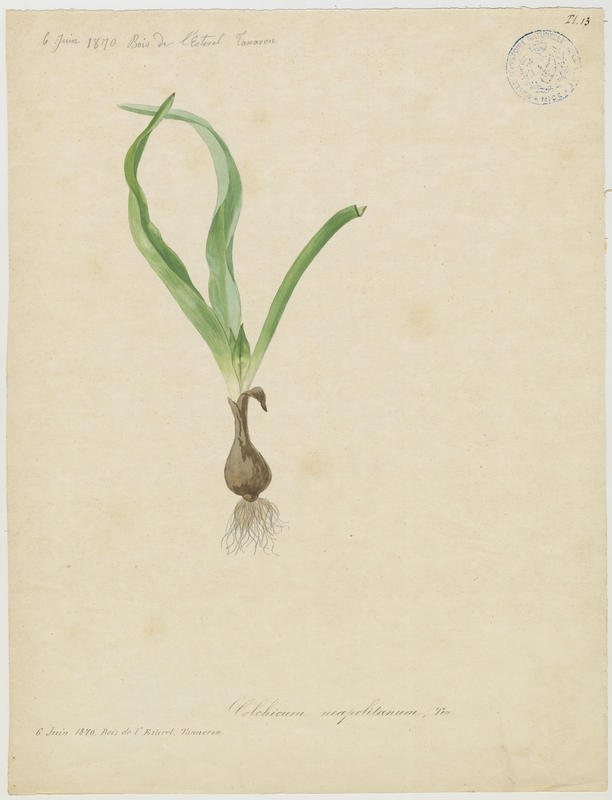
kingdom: Plantae
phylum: Tracheophyta
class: Liliopsida
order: Liliales
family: Colchicaceae
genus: Colchicum
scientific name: Colchicum parnassicum
